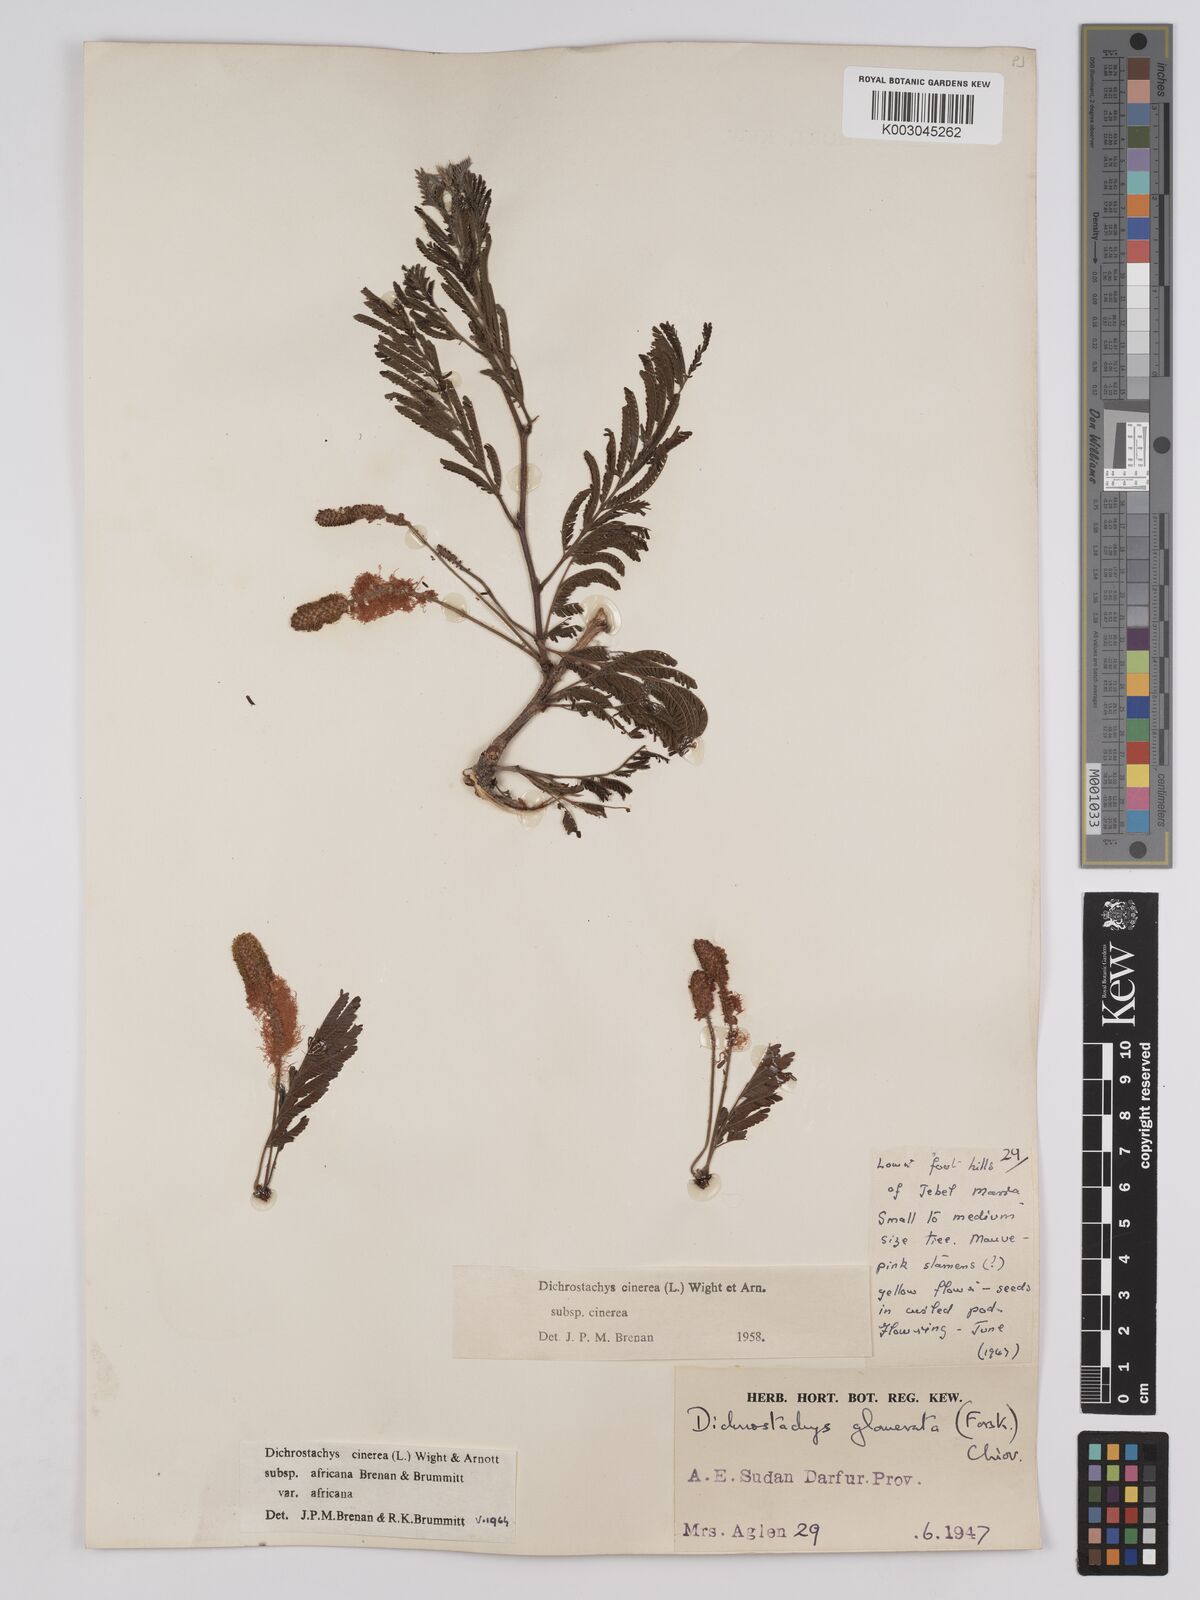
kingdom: Plantae
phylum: Tracheophyta
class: Magnoliopsida
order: Fabales
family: Fabaceae
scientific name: Fabaceae
